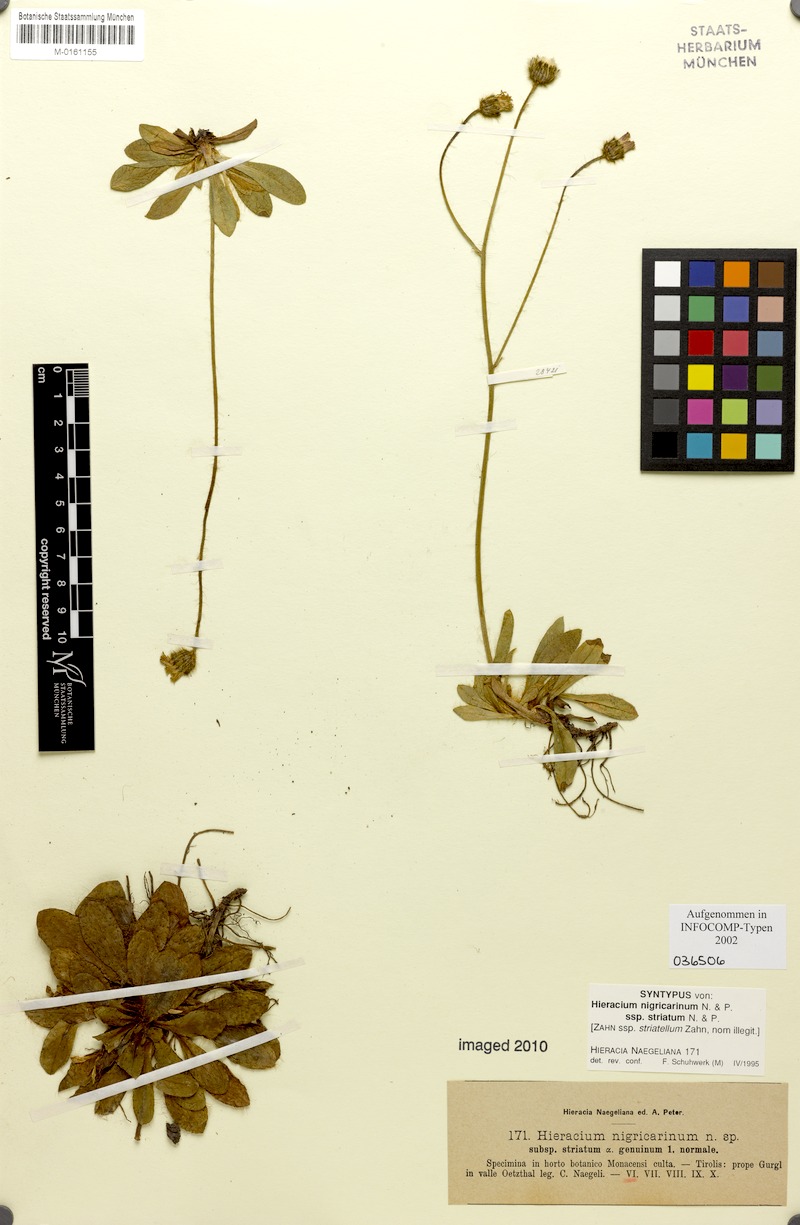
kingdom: Plantae
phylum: Tracheophyta
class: Magnoliopsida
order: Asterales
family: Asteraceae
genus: Pilosella
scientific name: Pilosella lathraea
